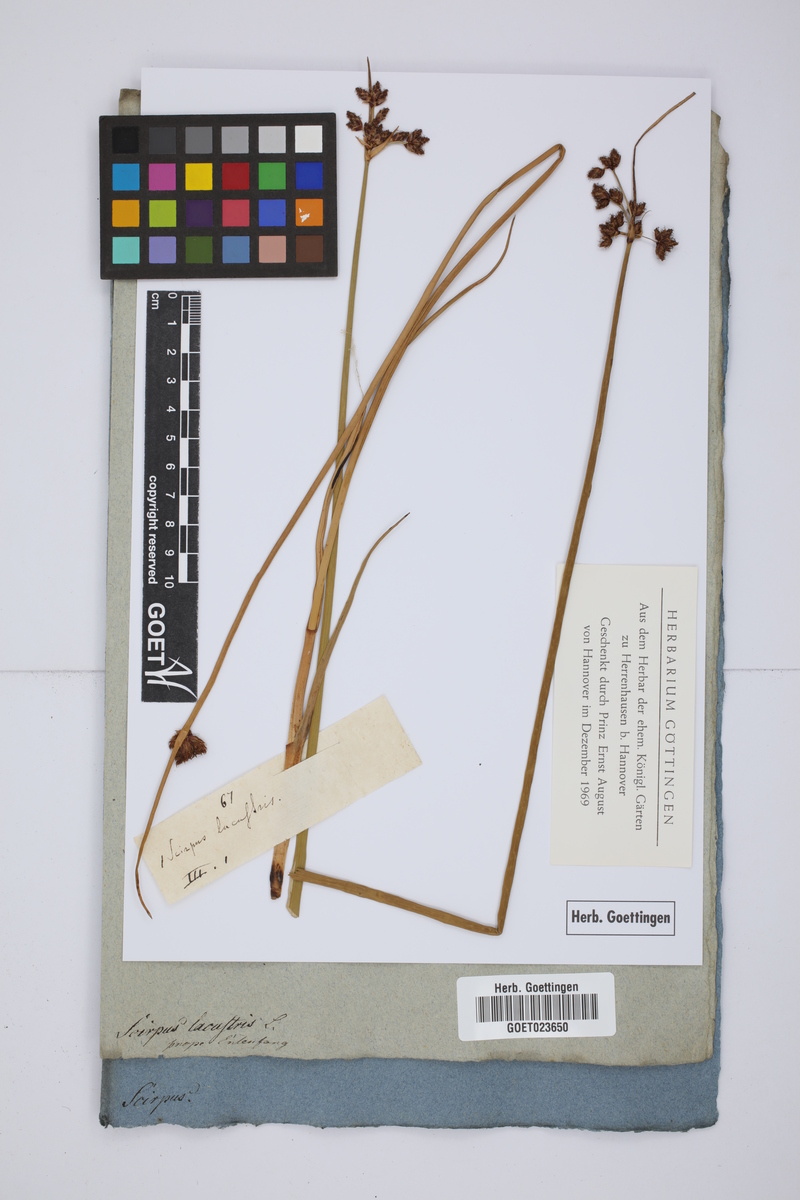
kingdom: Plantae
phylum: Tracheophyta
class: Liliopsida
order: Poales
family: Cyperaceae
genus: Schoenoplectus
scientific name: Schoenoplectus lacustris
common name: Common club-rush
